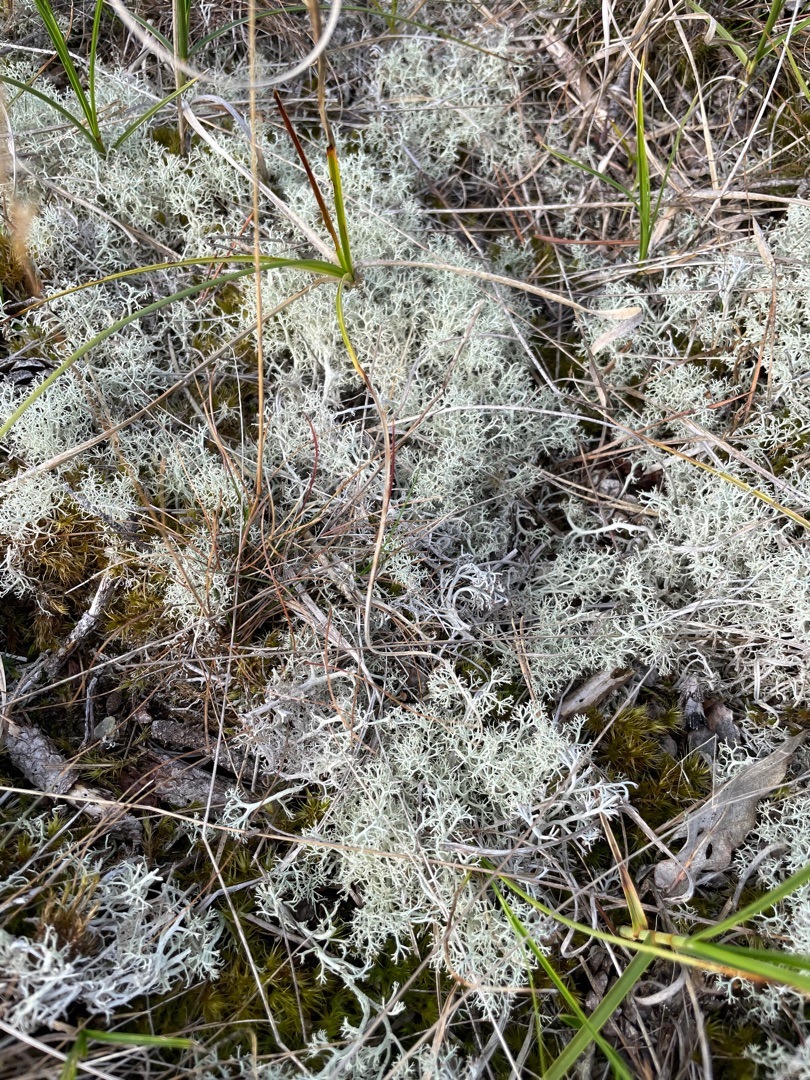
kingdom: Fungi
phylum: Ascomycota
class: Lecanoromycetes
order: Lecanorales
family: Cladoniaceae
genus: Cladonia
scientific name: Cladonia portentosa
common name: Hede-rensdyrlav
